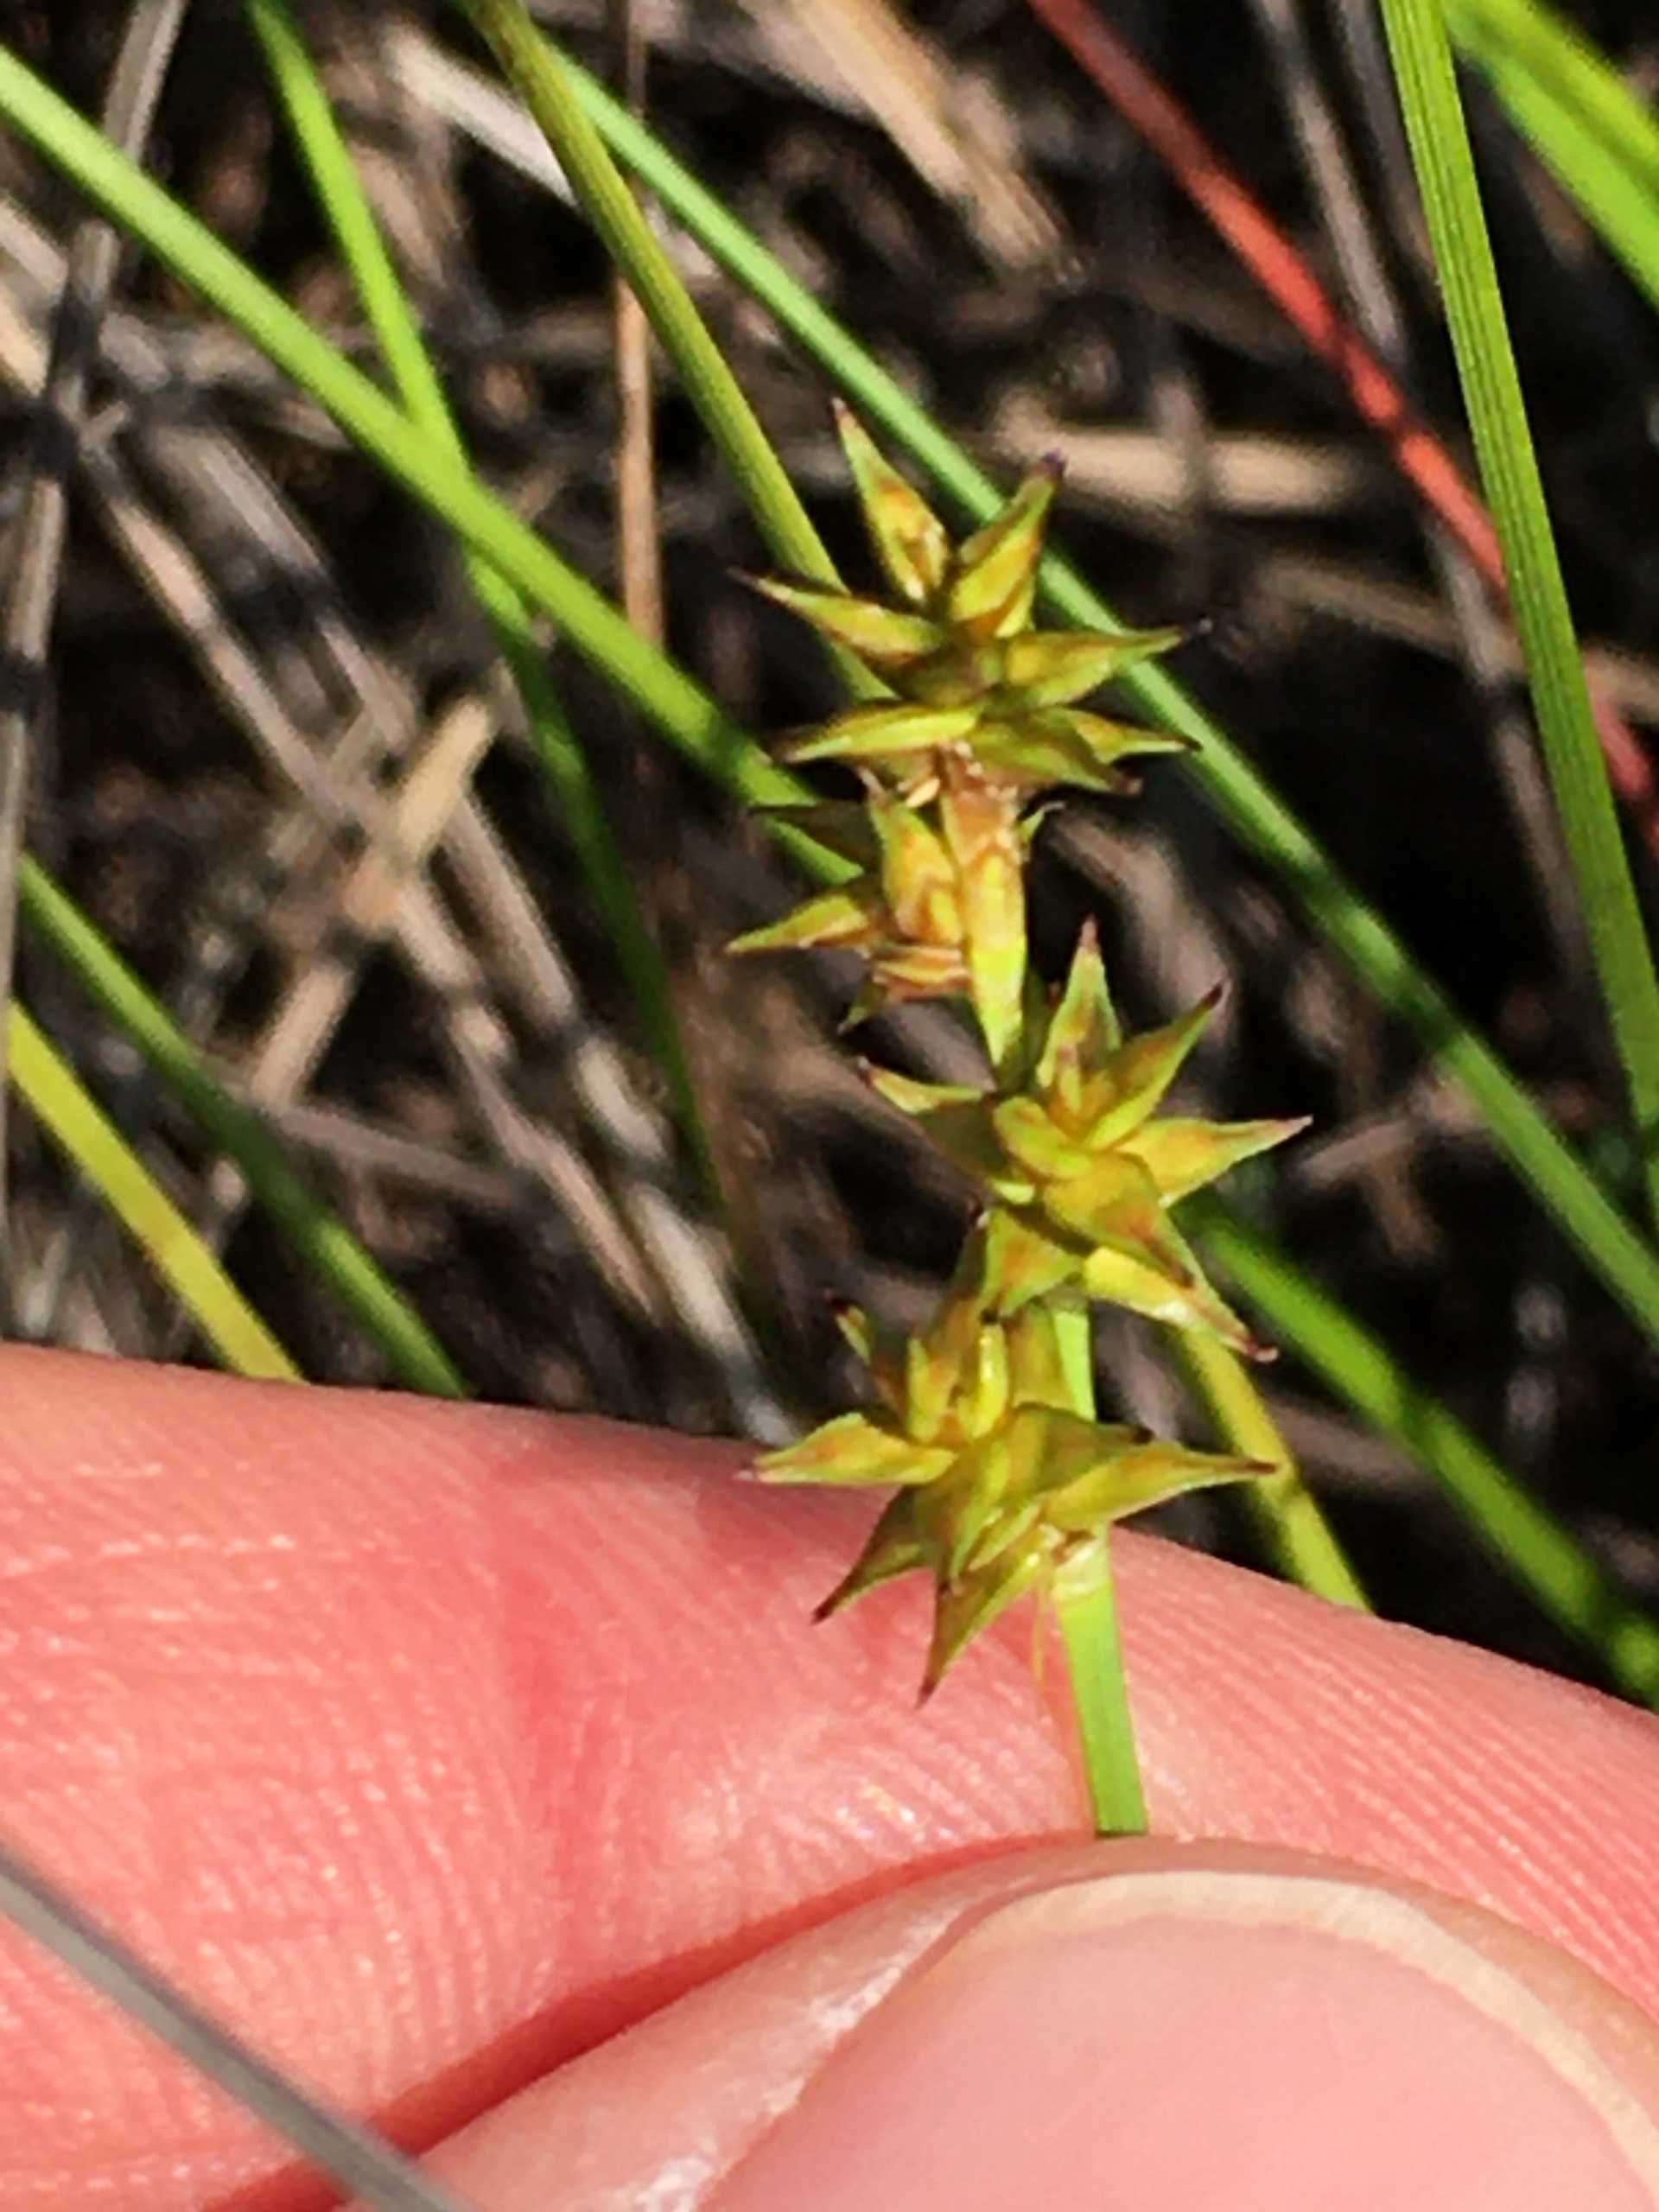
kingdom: Plantae
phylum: Tracheophyta
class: Liliopsida
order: Poales
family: Cyperaceae
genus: Carex
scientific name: Carex echinata
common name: Stjerne-star
